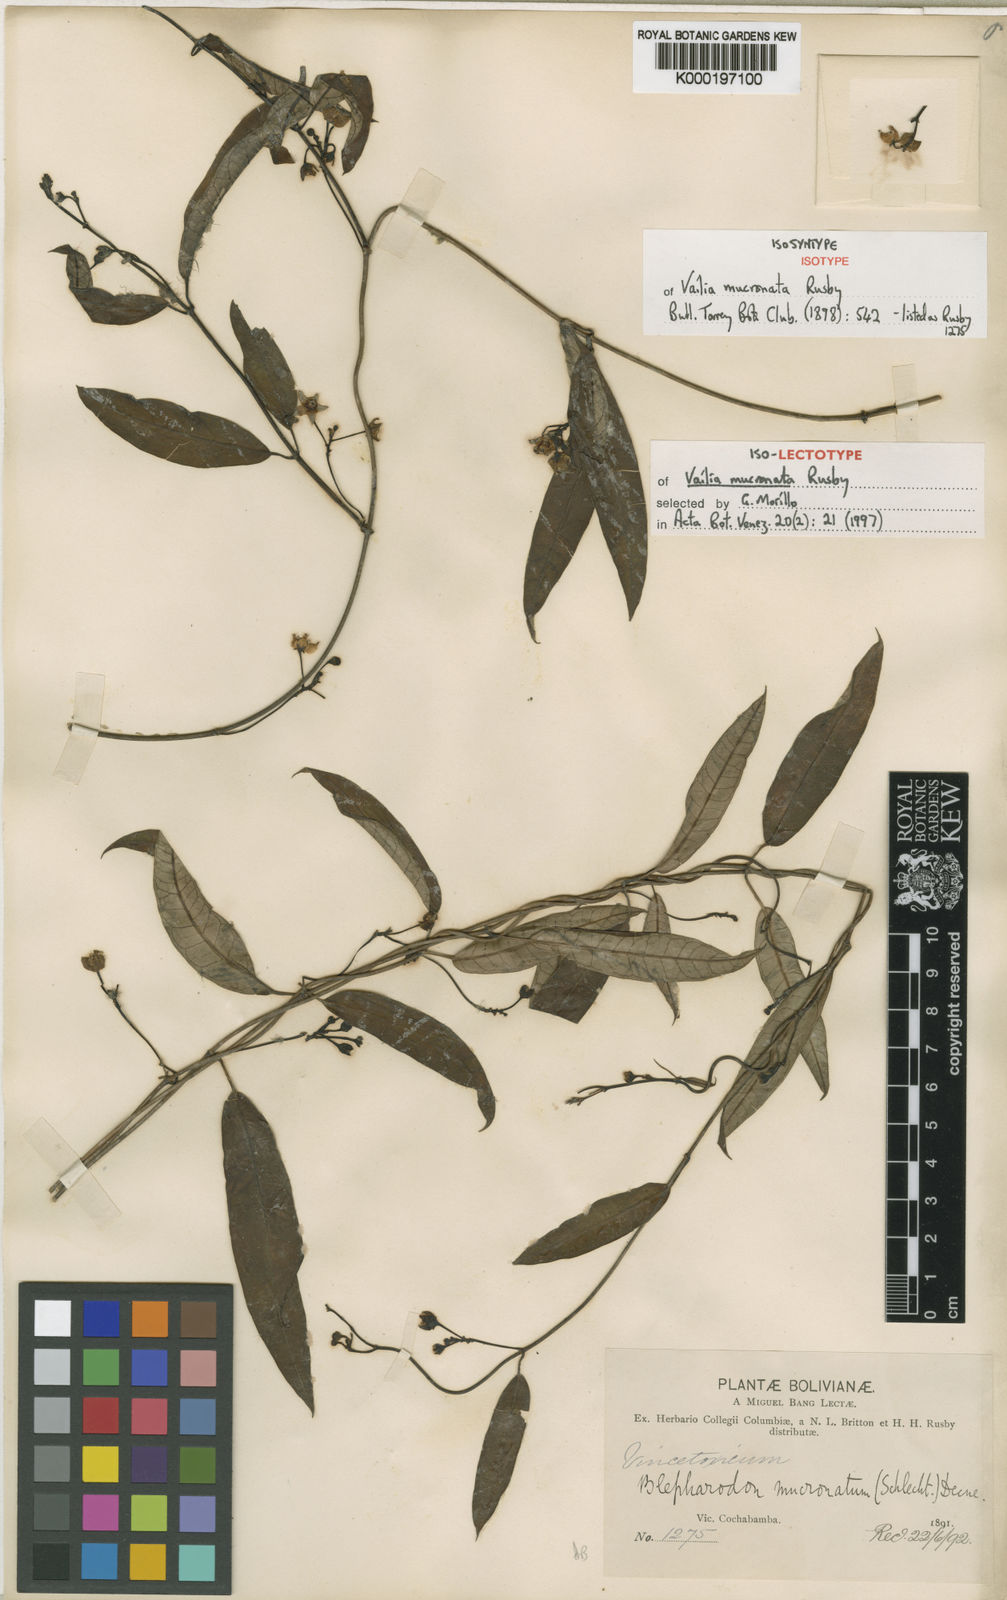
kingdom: Plantae
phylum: Tracheophyta
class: Magnoliopsida
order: Gentianales
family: Apocynaceae
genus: Vailia
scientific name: Vailia salicina
